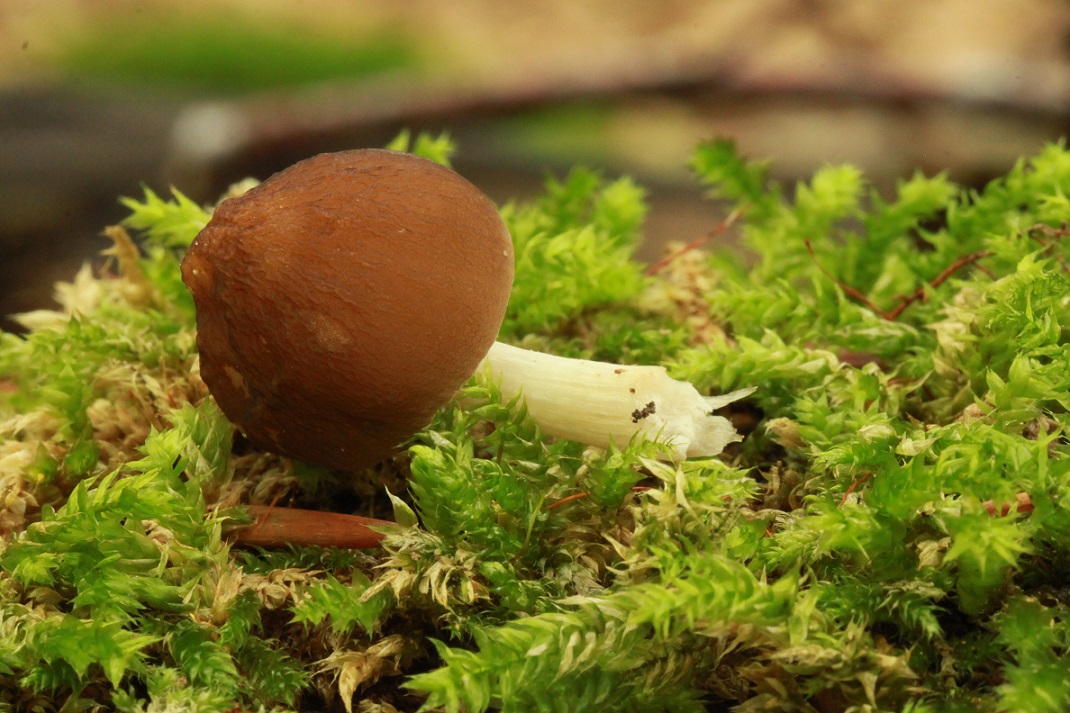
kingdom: Fungi
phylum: Basidiomycota
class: Agaricomycetes
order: Agaricales
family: Pluteaceae
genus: Pluteus
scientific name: Pluteus phlebophorus
